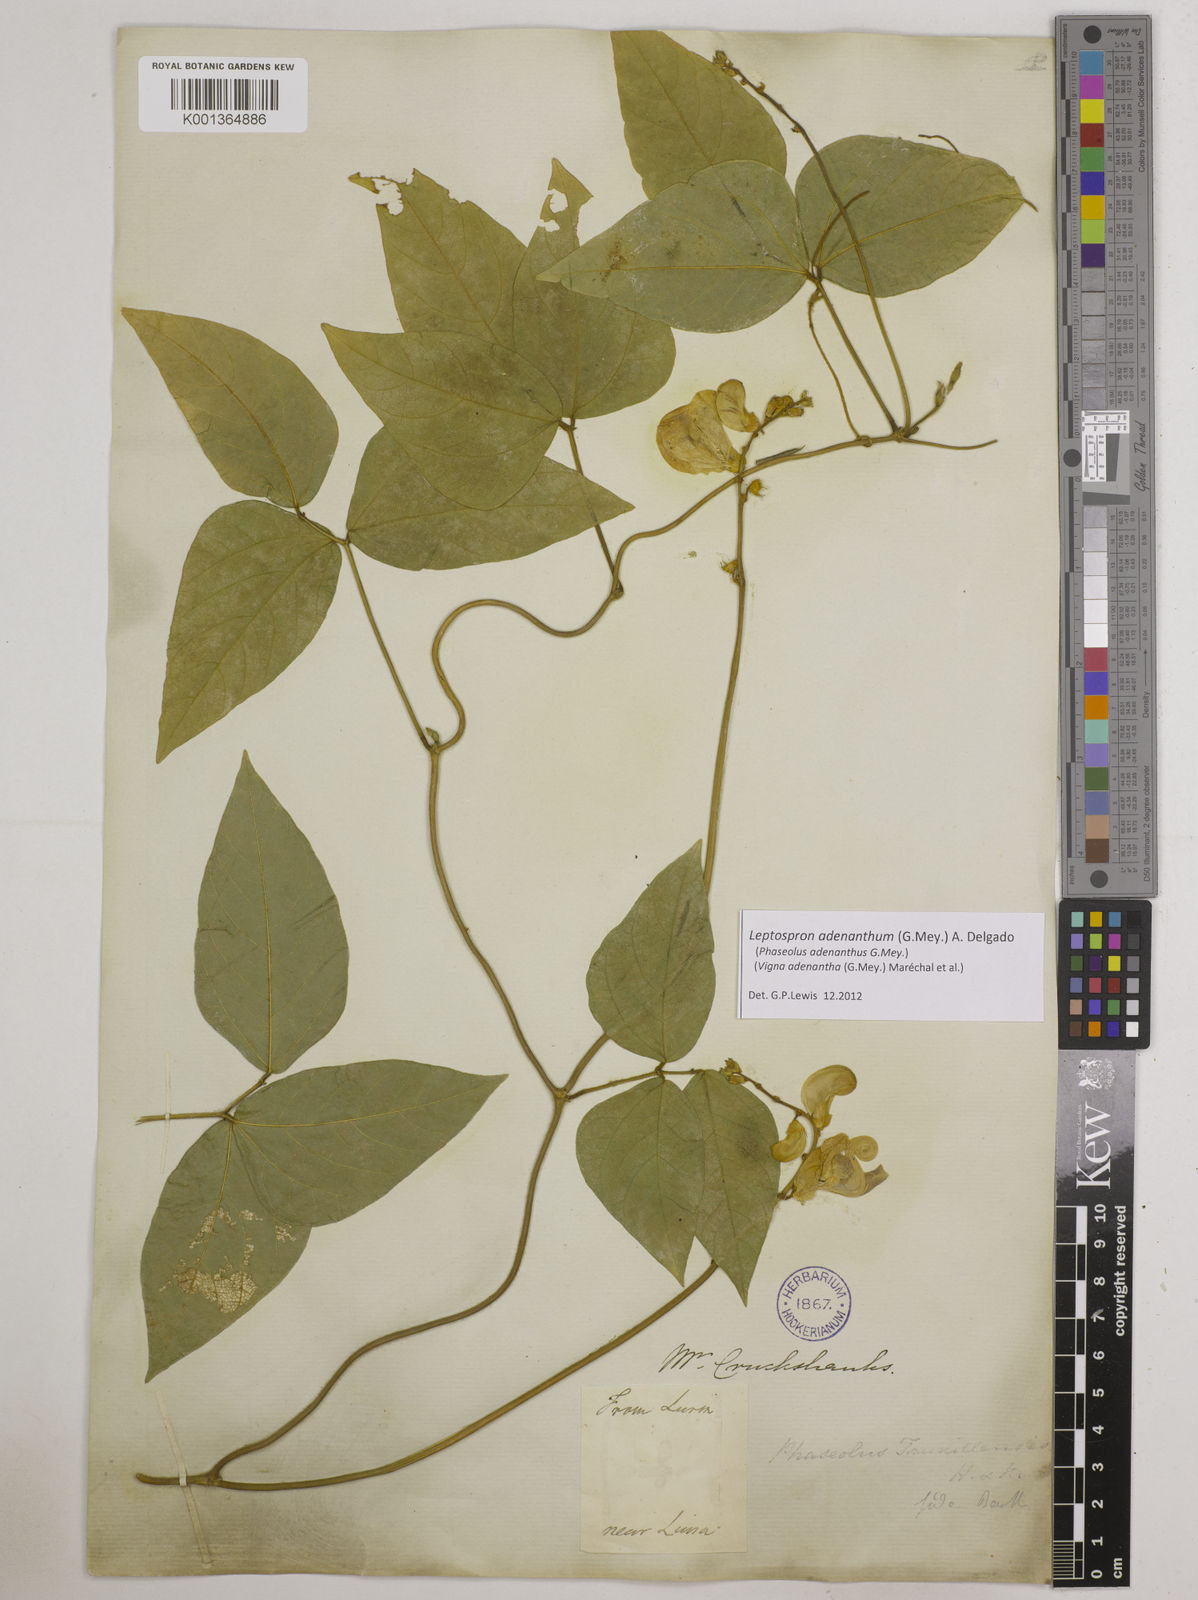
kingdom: Plantae
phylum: Tracheophyta
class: Magnoliopsida
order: Fabales
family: Fabaceae
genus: Leptospron
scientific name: Leptospron adenanthum
